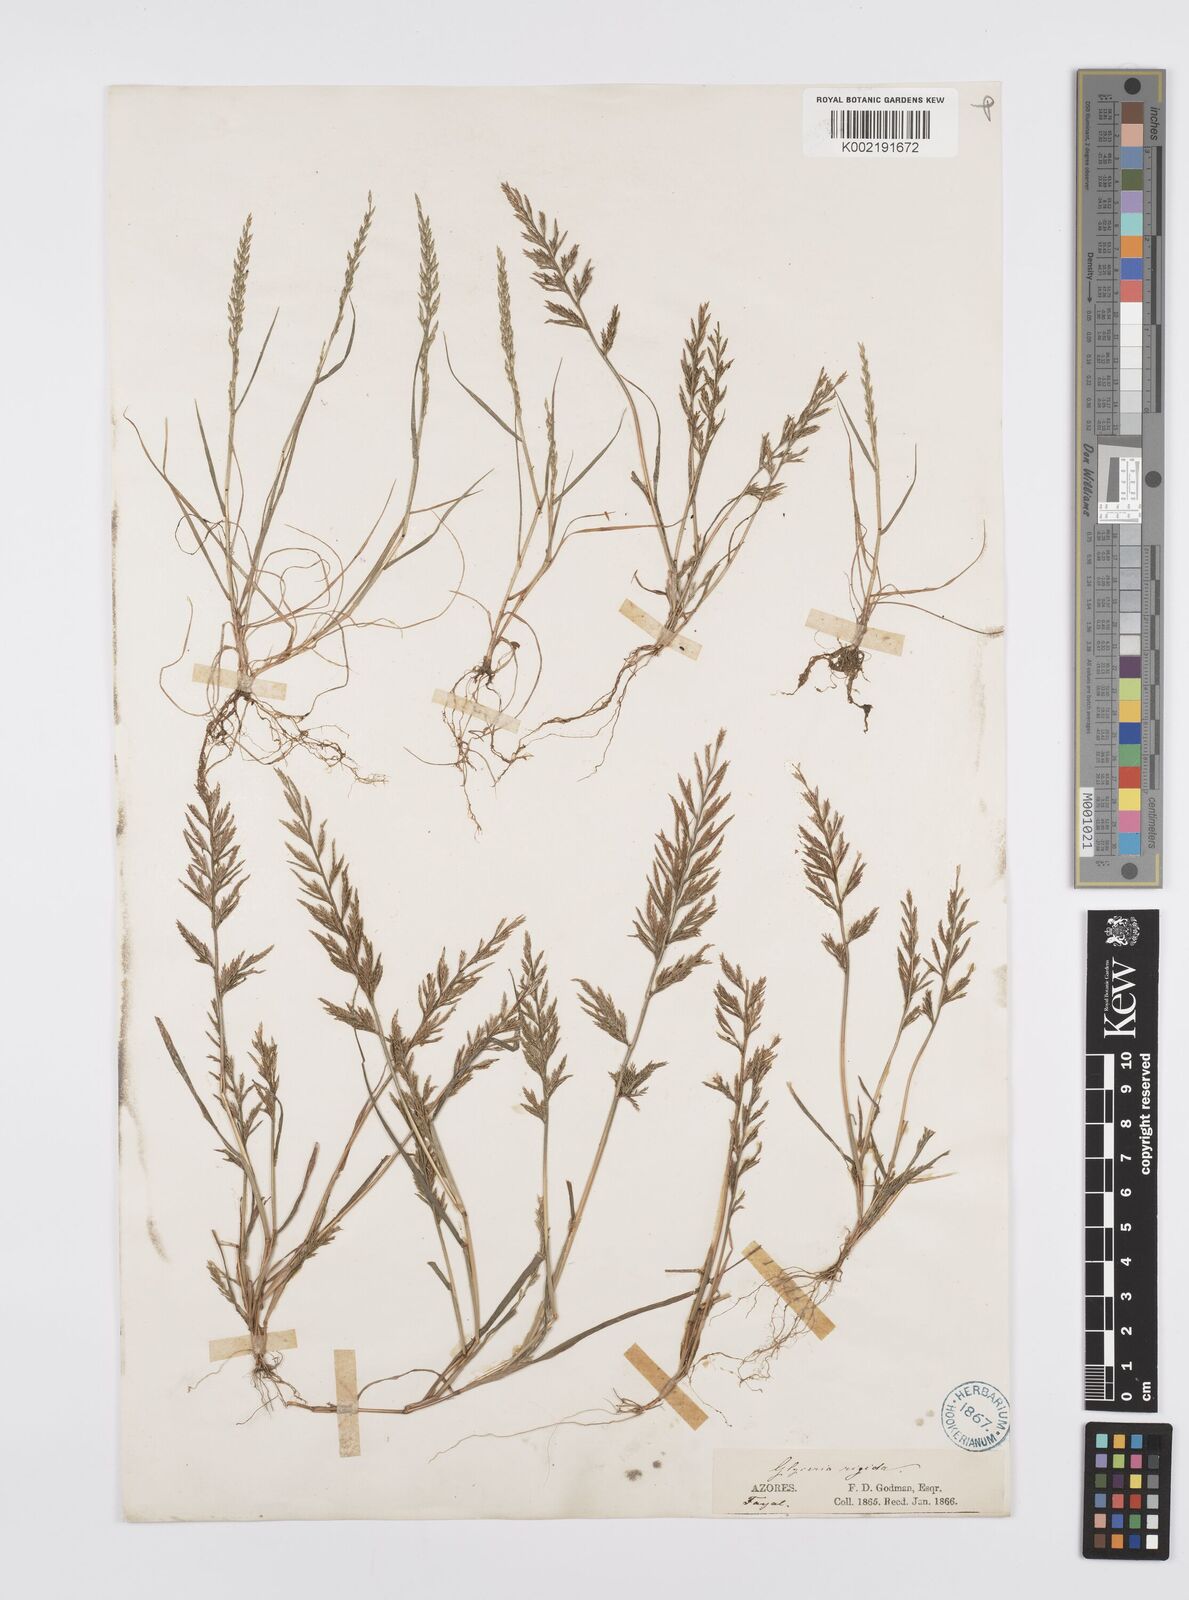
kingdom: Plantae
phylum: Tracheophyta
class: Liliopsida
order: Poales
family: Poaceae
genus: Catapodium
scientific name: Catapodium rigidum
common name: Fern-grass
